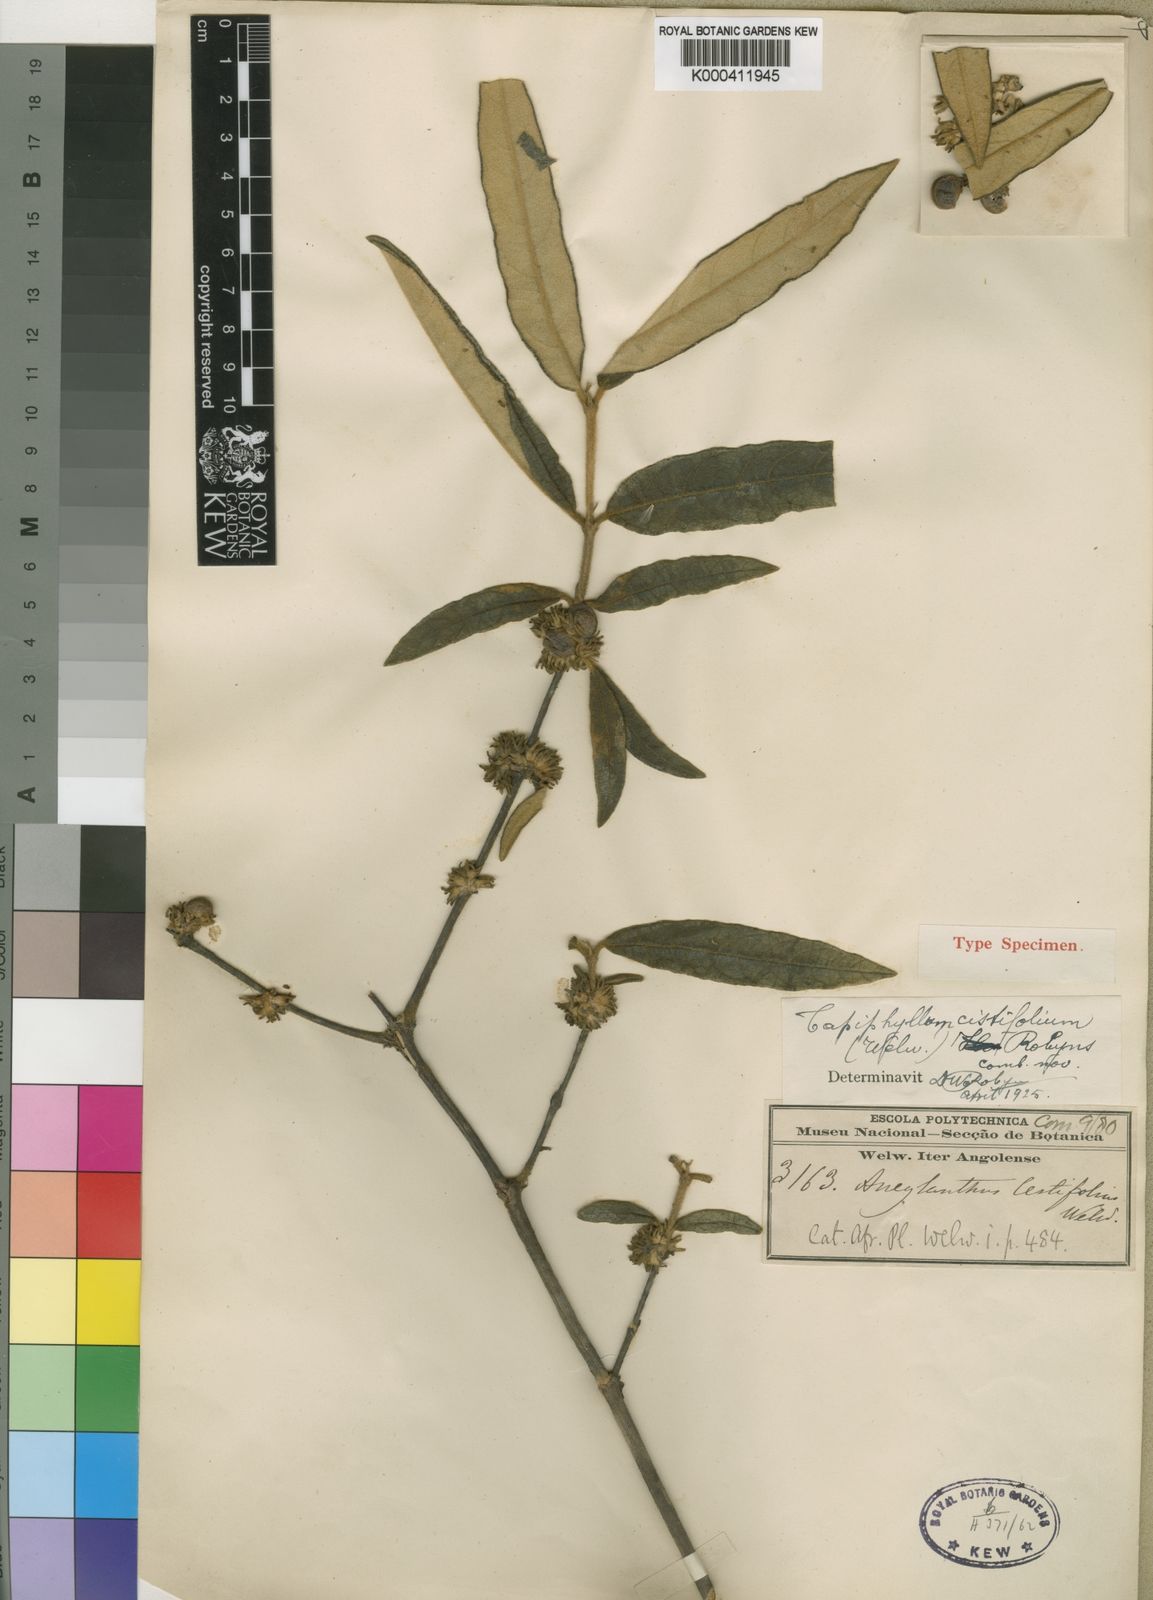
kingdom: Plantae
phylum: Tracheophyta
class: Magnoliopsida
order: Gentianales
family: Rubiaceae
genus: Vangueria
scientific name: Vangueria cistifolia
